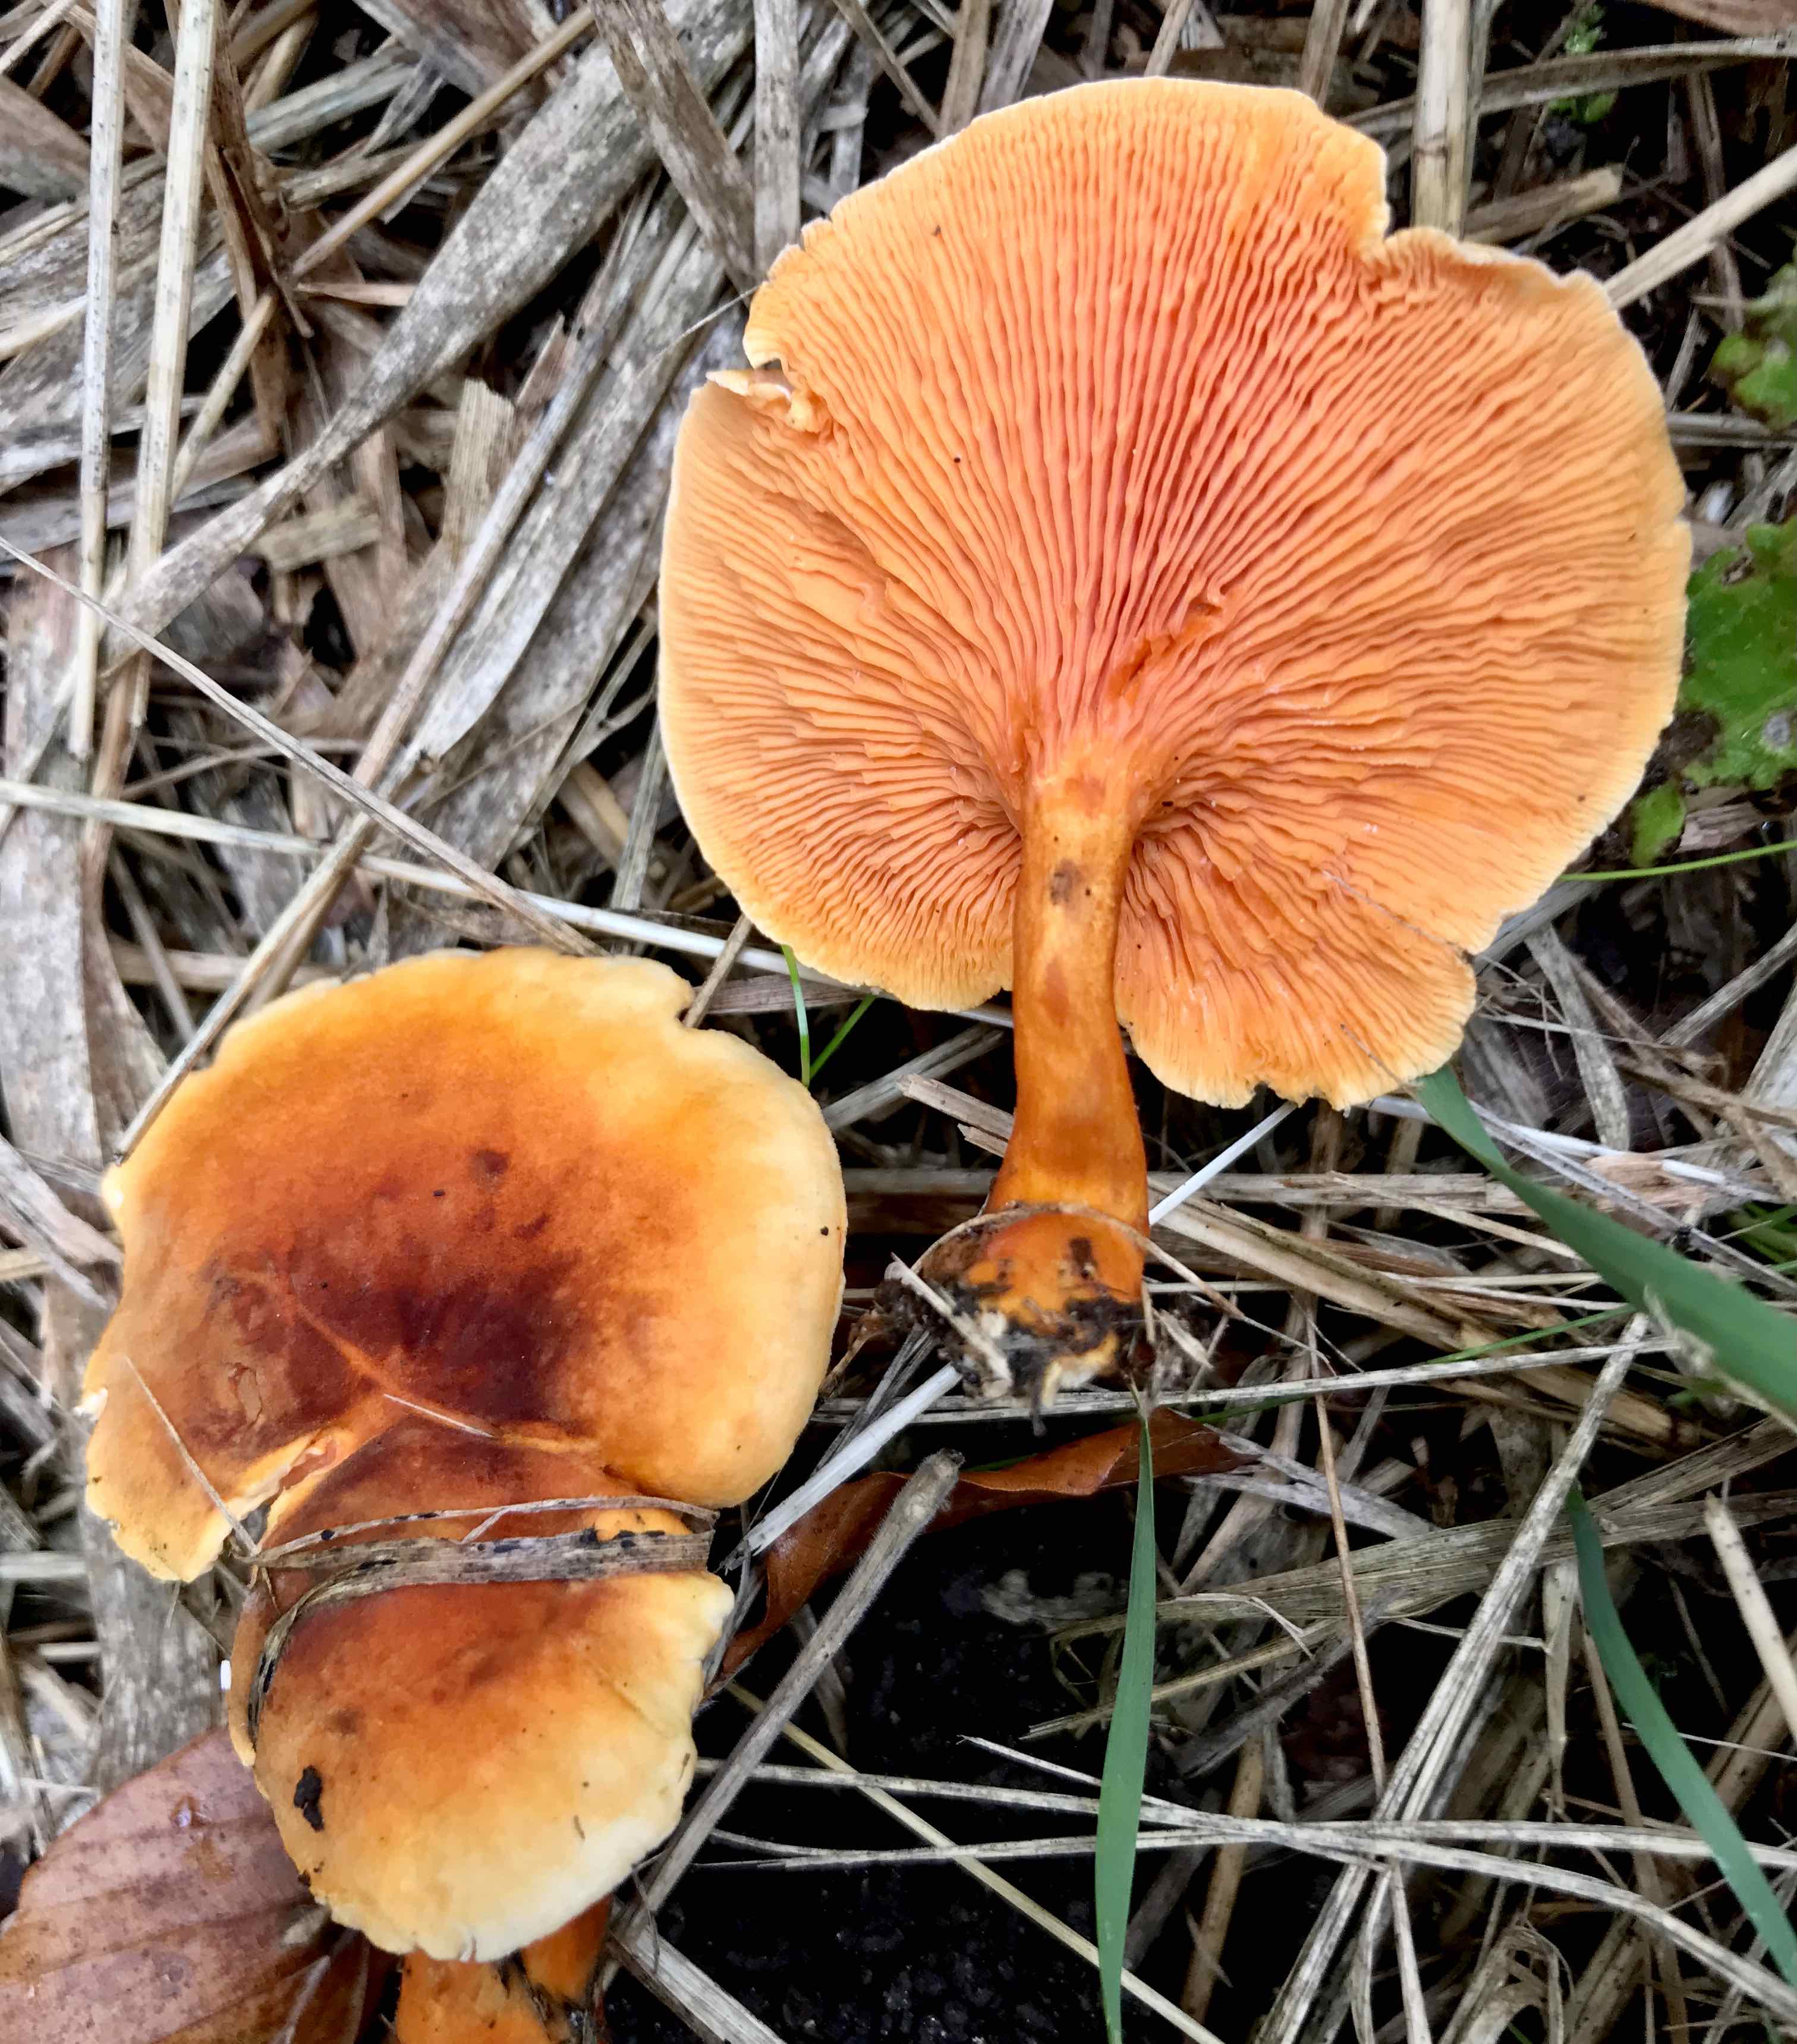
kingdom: Fungi
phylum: Basidiomycota
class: Agaricomycetes
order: Boletales
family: Hygrophoropsidaceae
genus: Hygrophoropsis
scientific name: Hygrophoropsis aurantiaca
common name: almindelig orangekantarel
